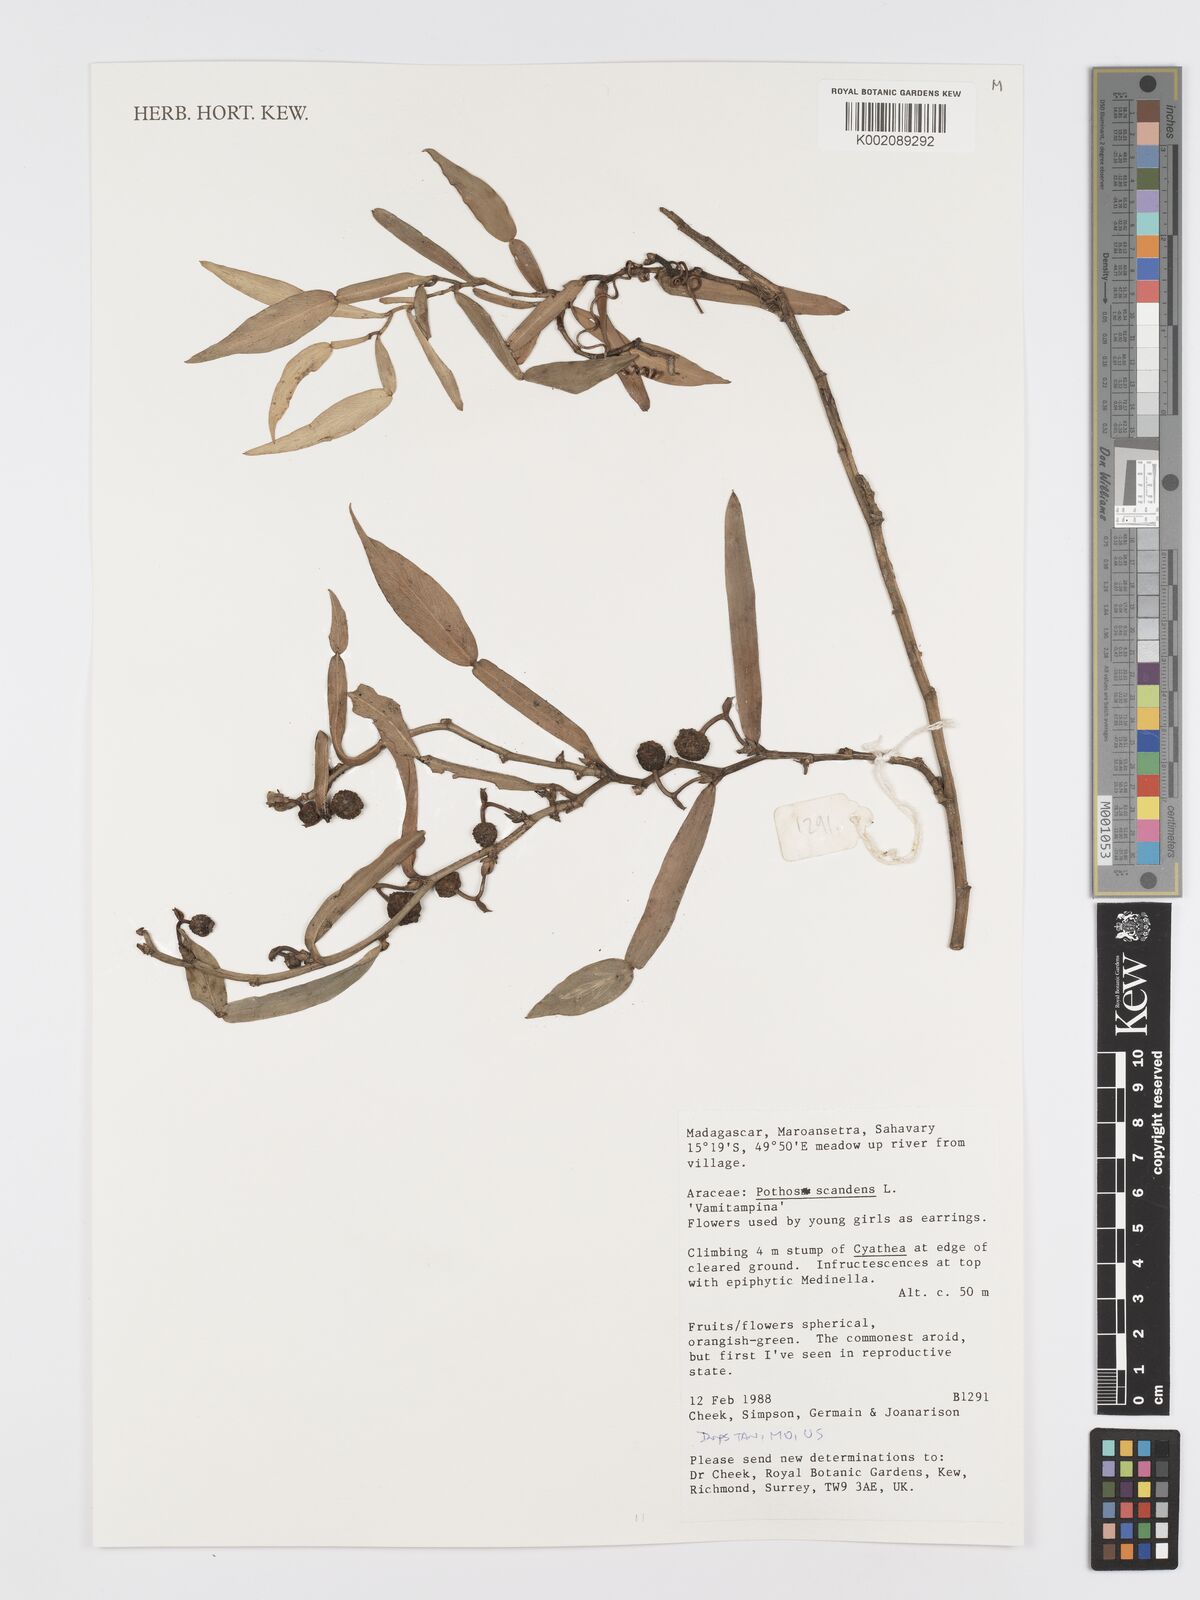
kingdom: Plantae
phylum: Tracheophyta
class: Liliopsida
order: Alismatales
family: Araceae
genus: Pothos
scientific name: Pothos scandens
